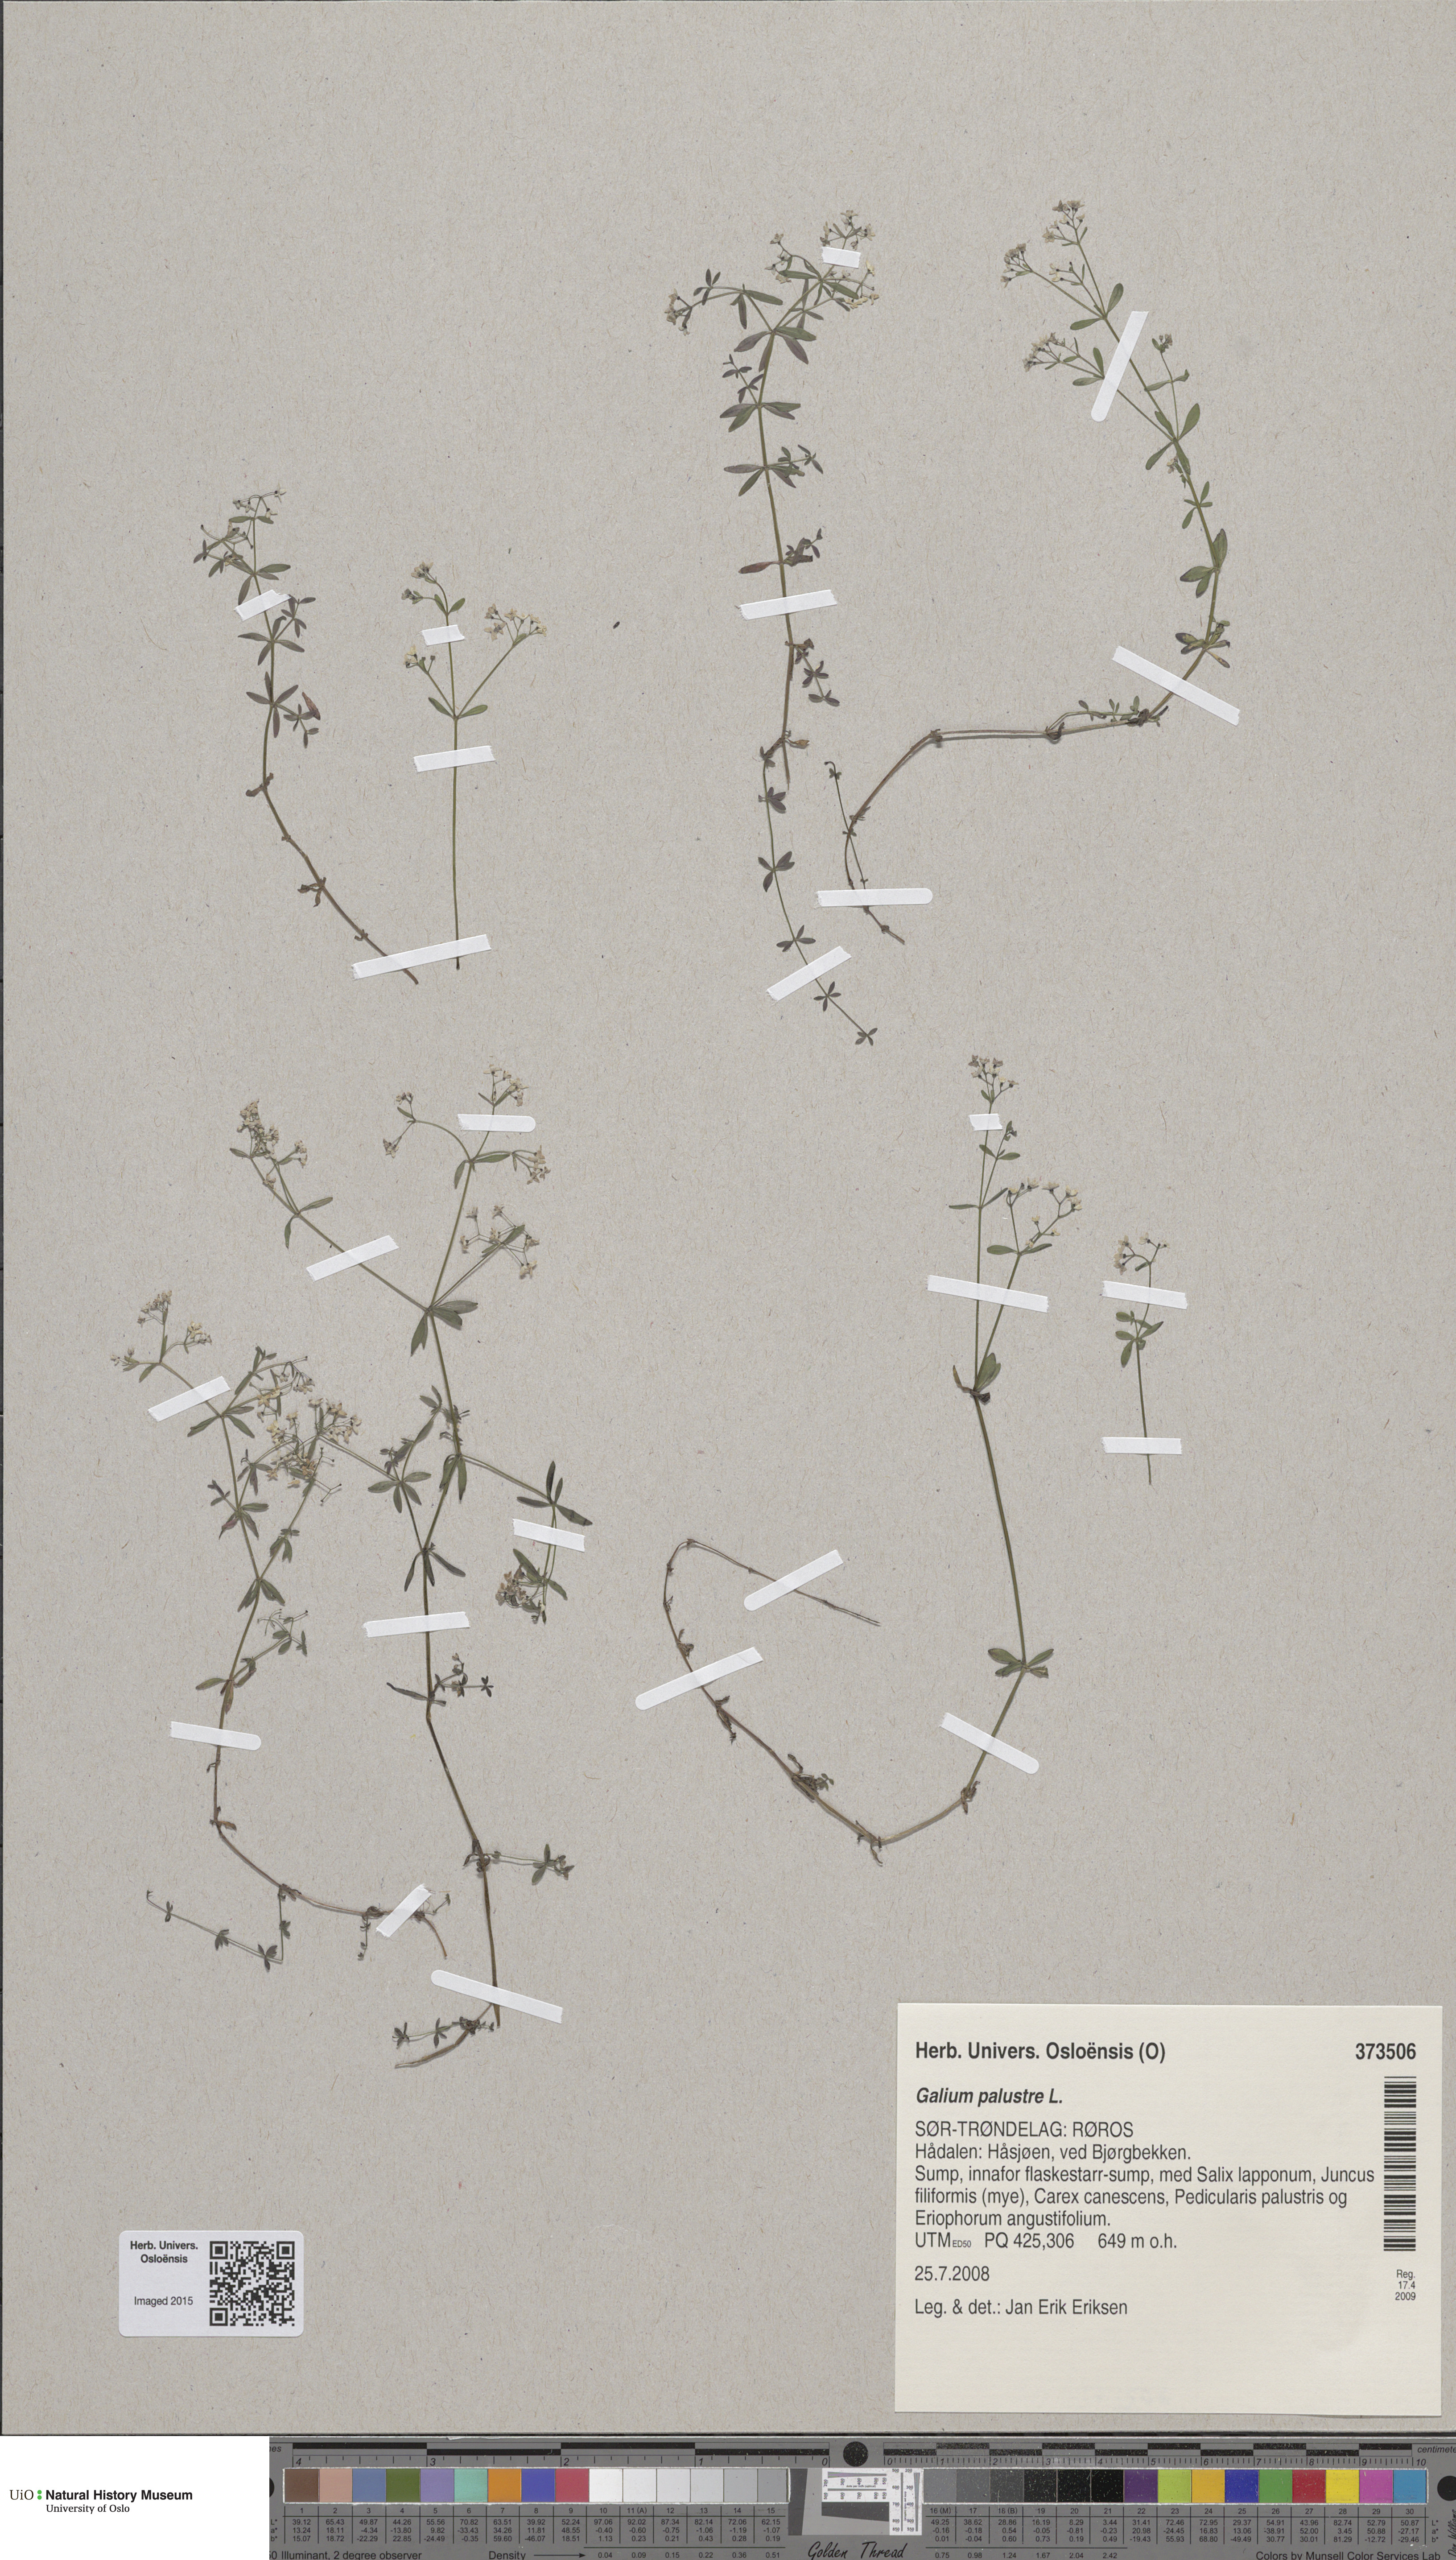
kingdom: Plantae
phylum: Tracheophyta
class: Magnoliopsida
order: Gentianales
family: Rubiaceae
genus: Galium
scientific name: Galium palustre
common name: Common marsh-bedstraw
